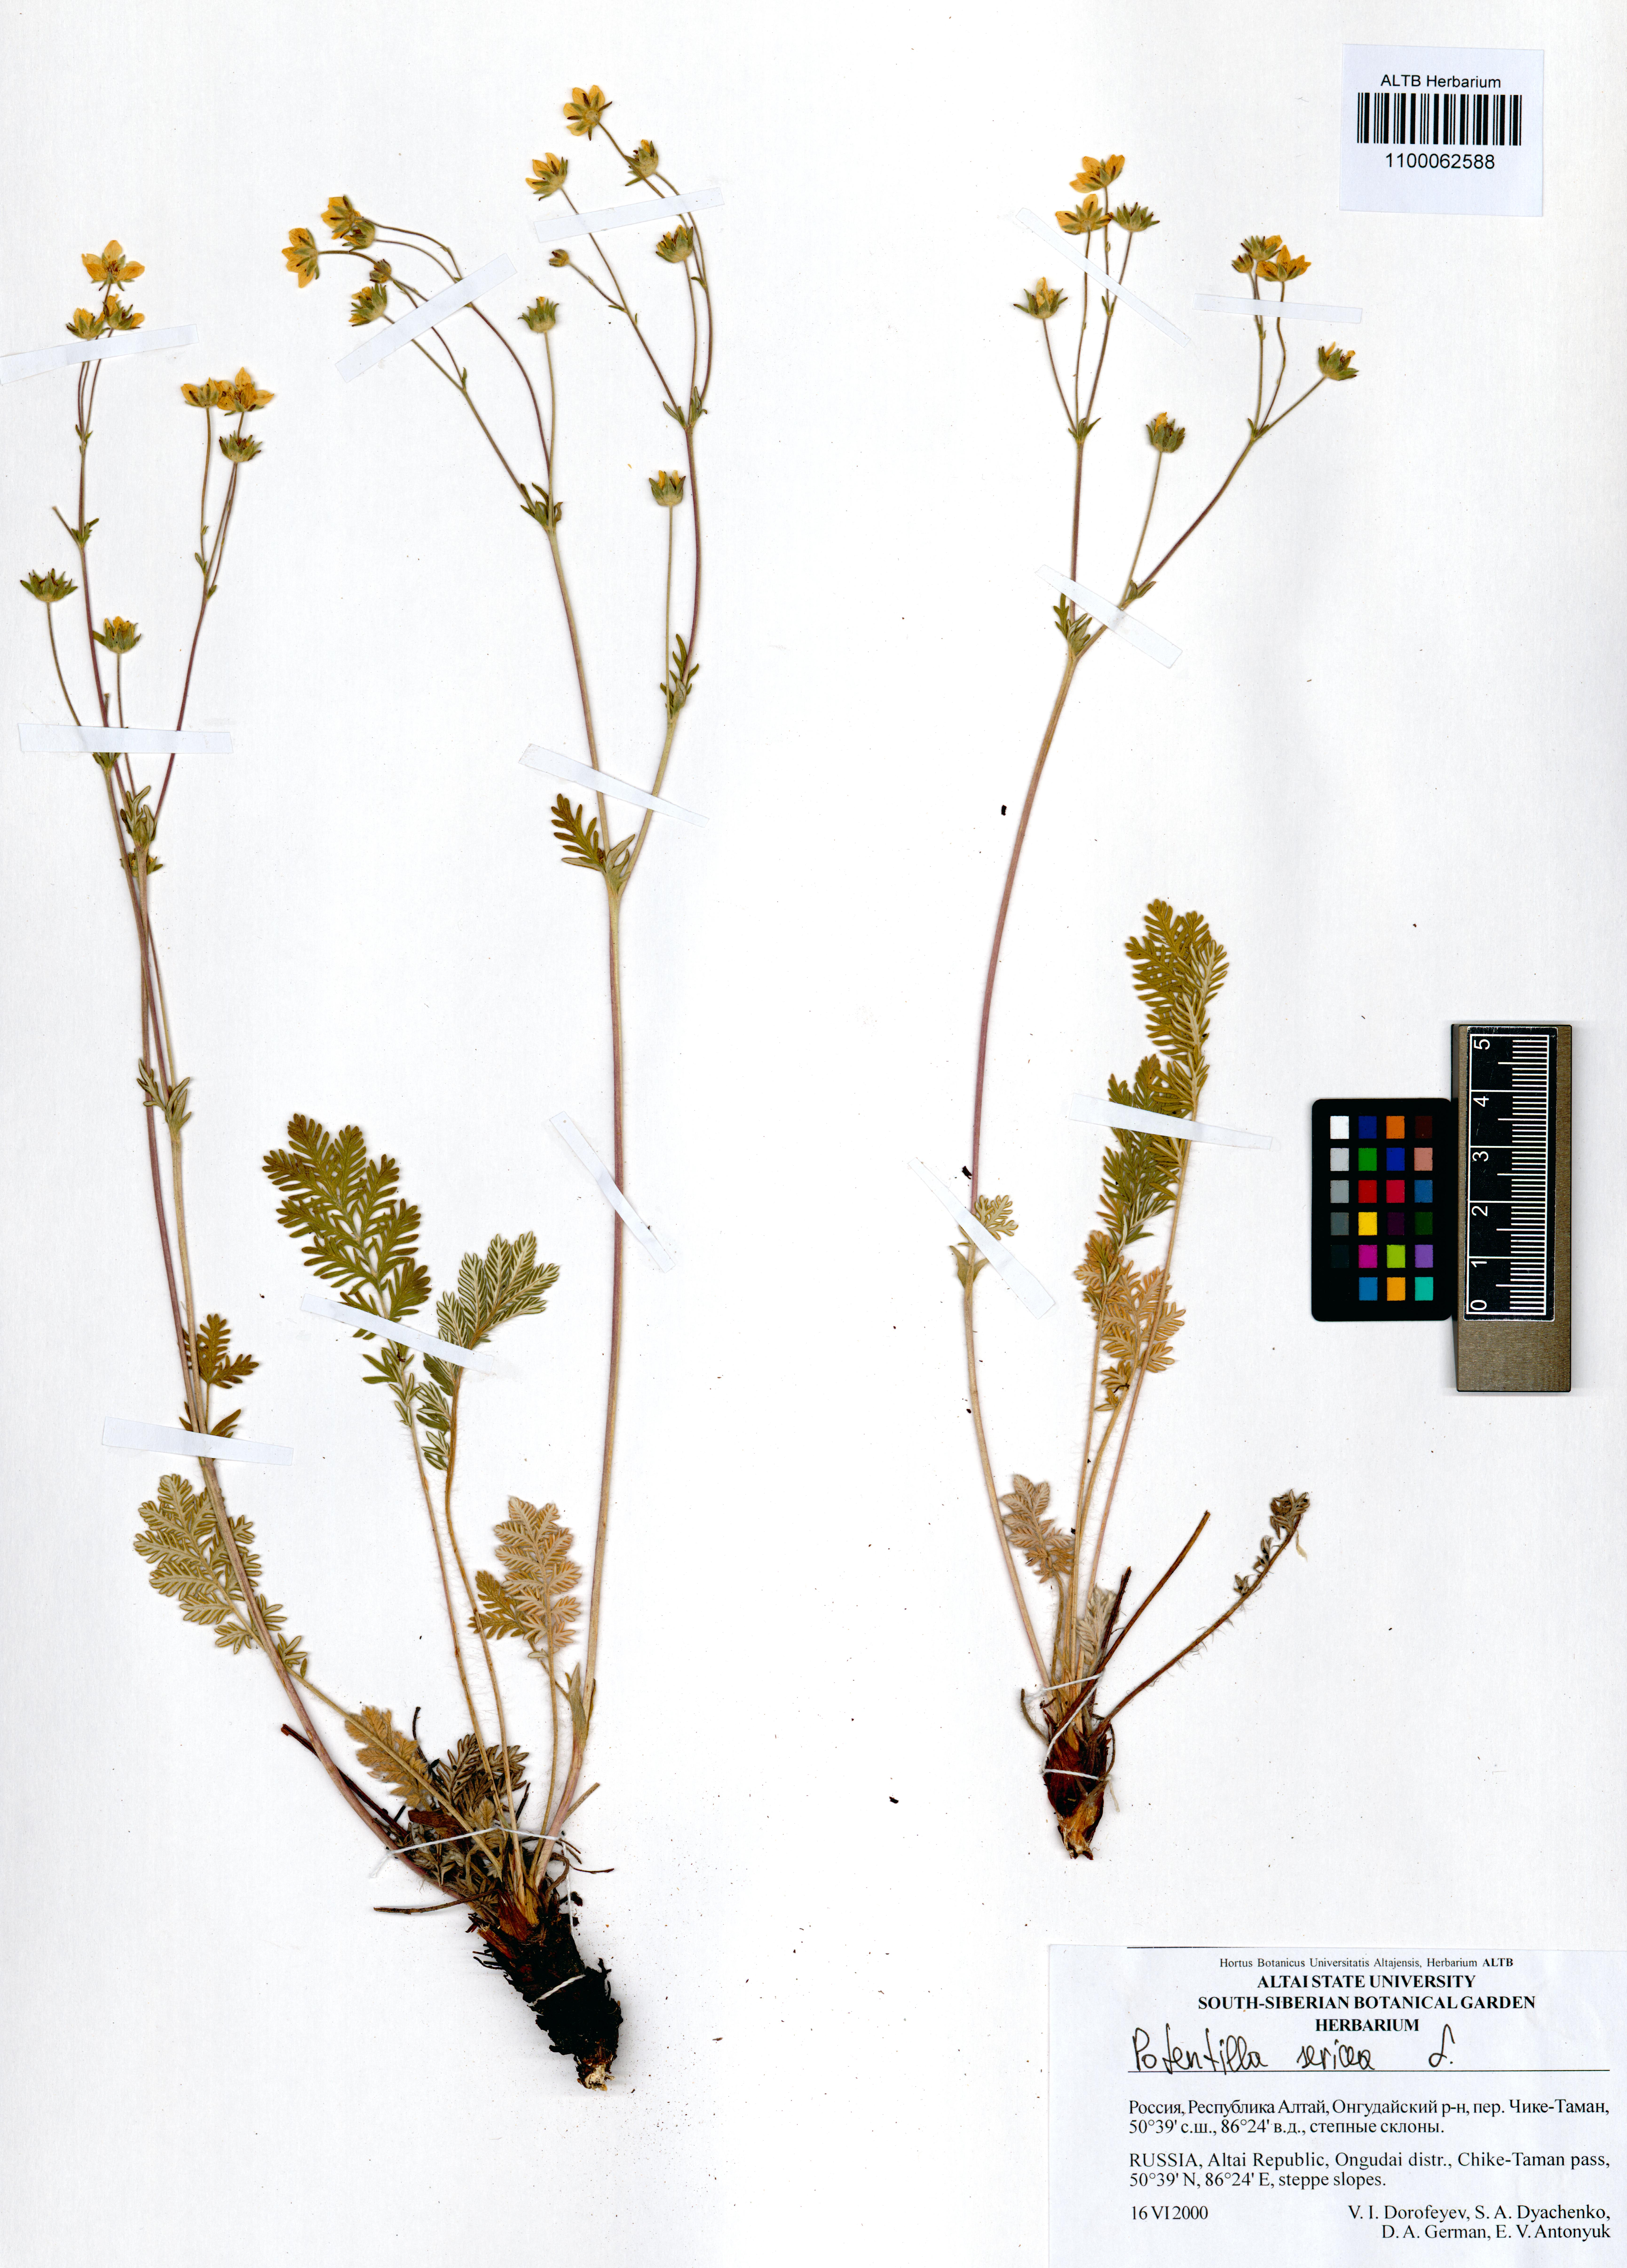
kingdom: Plantae
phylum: Tracheophyta
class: Magnoliopsida
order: Rosales
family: Rosaceae
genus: Potentilla
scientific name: Potentilla sericea
